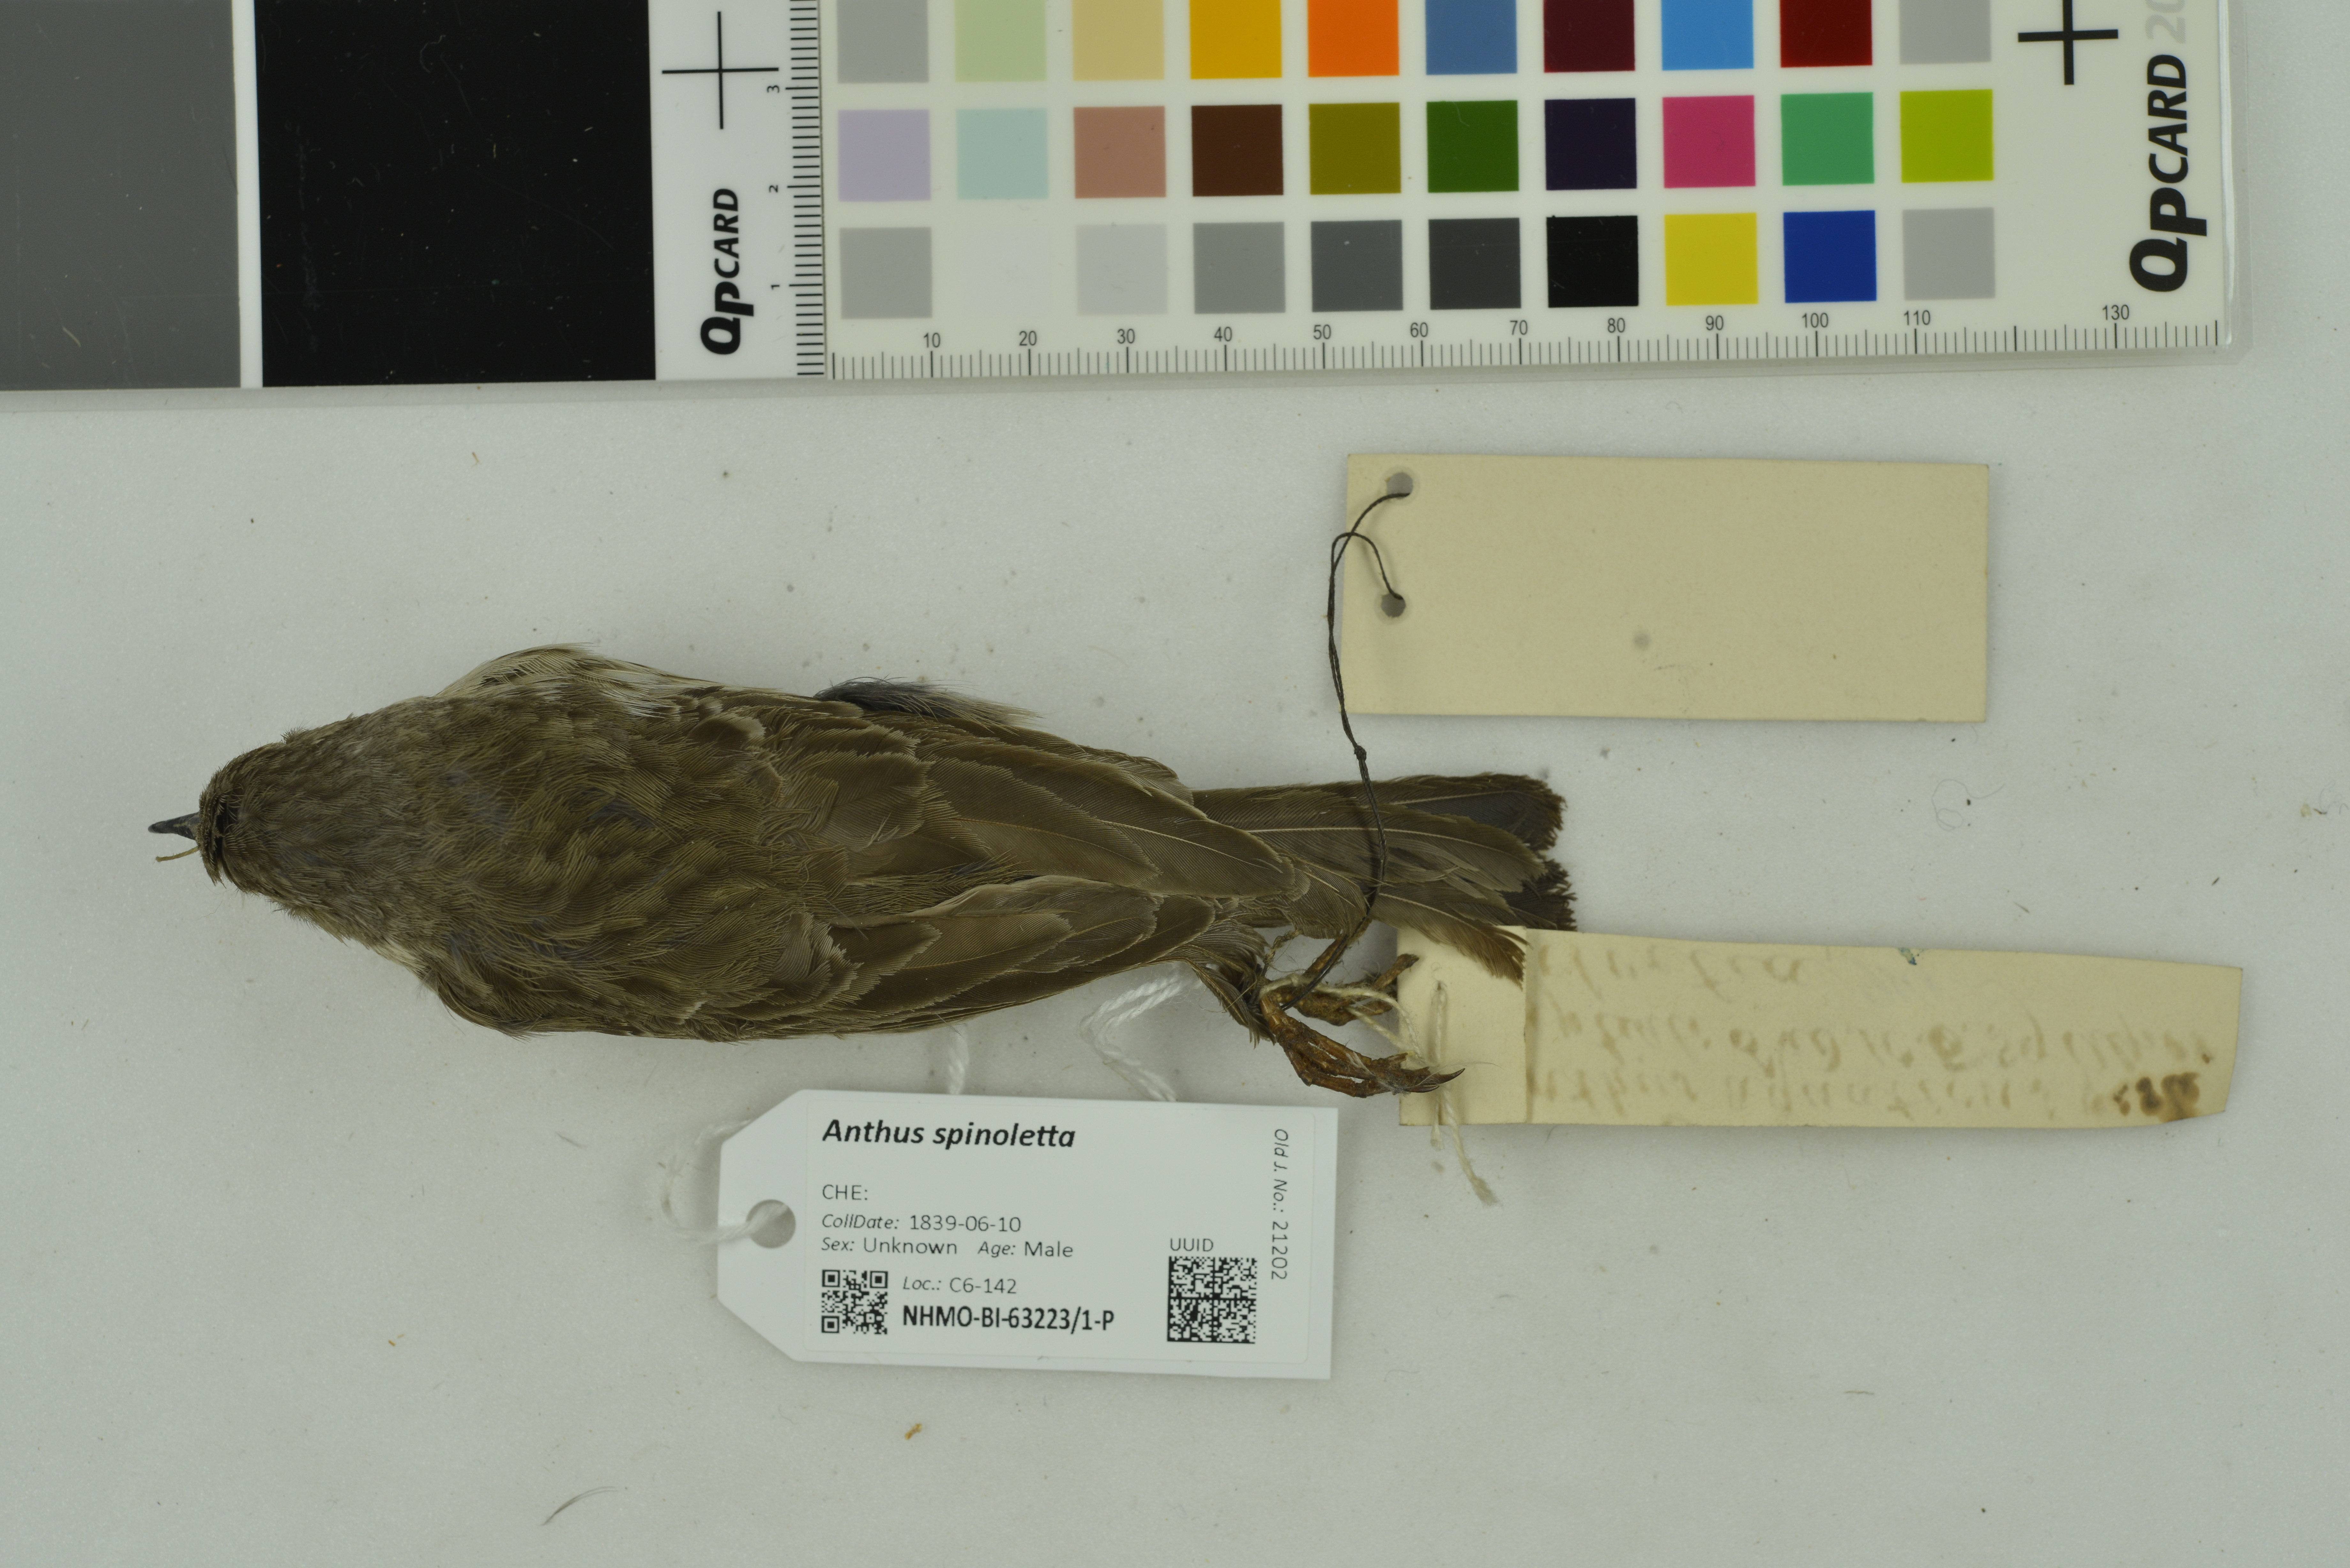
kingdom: Animalia
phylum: Chordata
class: Aves
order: Passeriformes
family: Motacillidae
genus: Anthus
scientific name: Anthus spinoletta
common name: Water pipit
